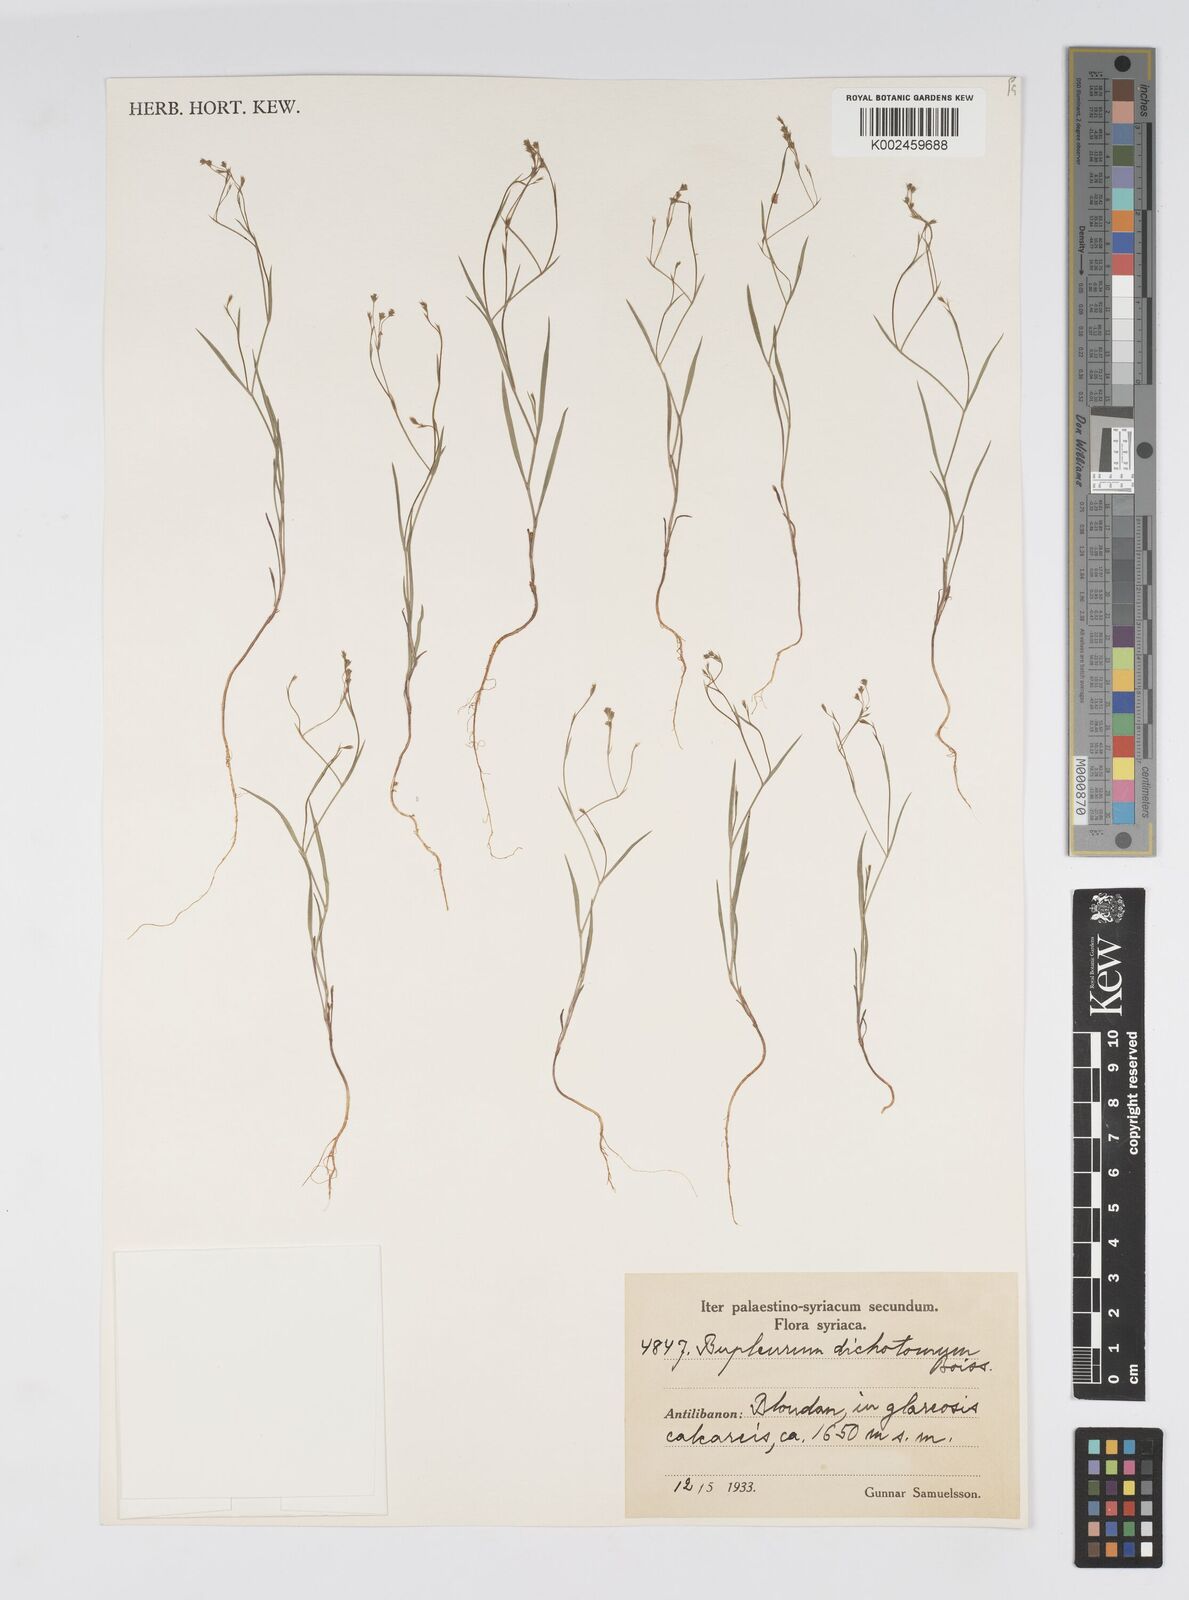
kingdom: Plantae
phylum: Tracheophyta
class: Magnoliopsida
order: Apiales
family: Apiaceae
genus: Bupleurum
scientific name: Bupleurum trichopodum
